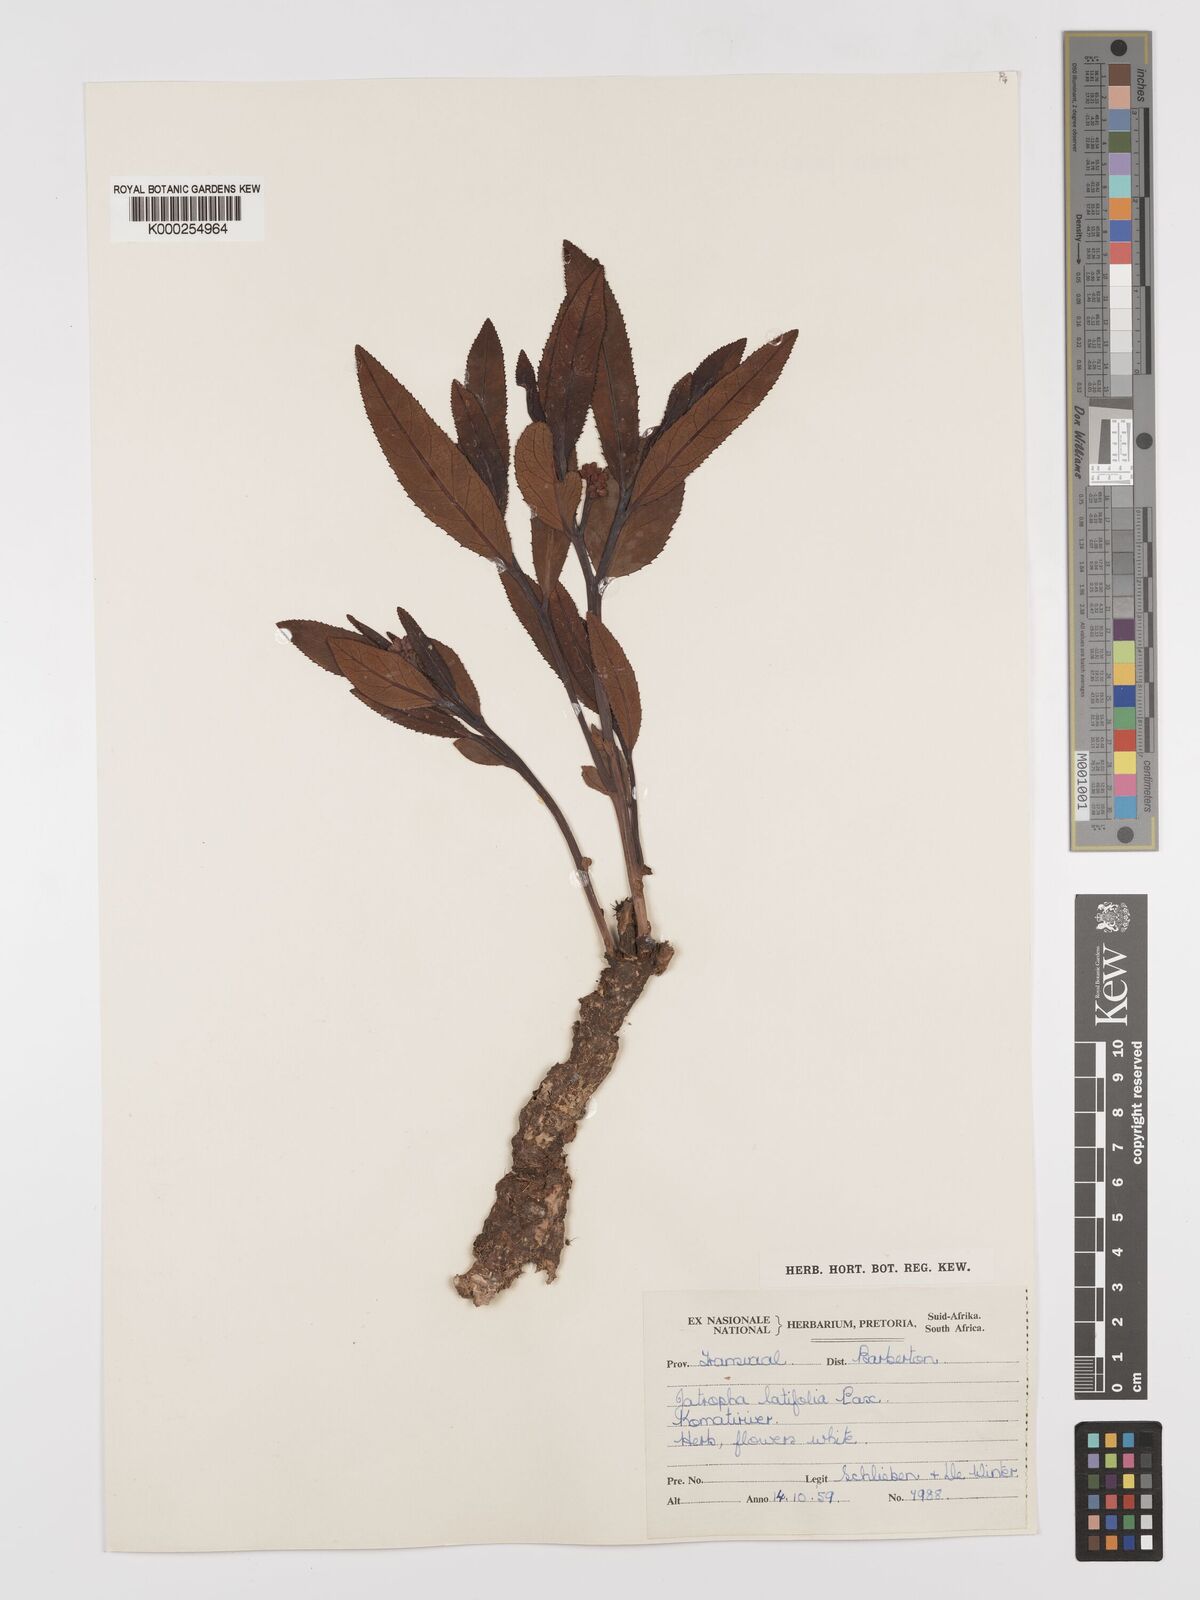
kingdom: Plantae
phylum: Tracheophyta
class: Magnoliopsida
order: Malpighiales
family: Euphorbiaceae
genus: Jatropha
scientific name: Jatropha latifolia
